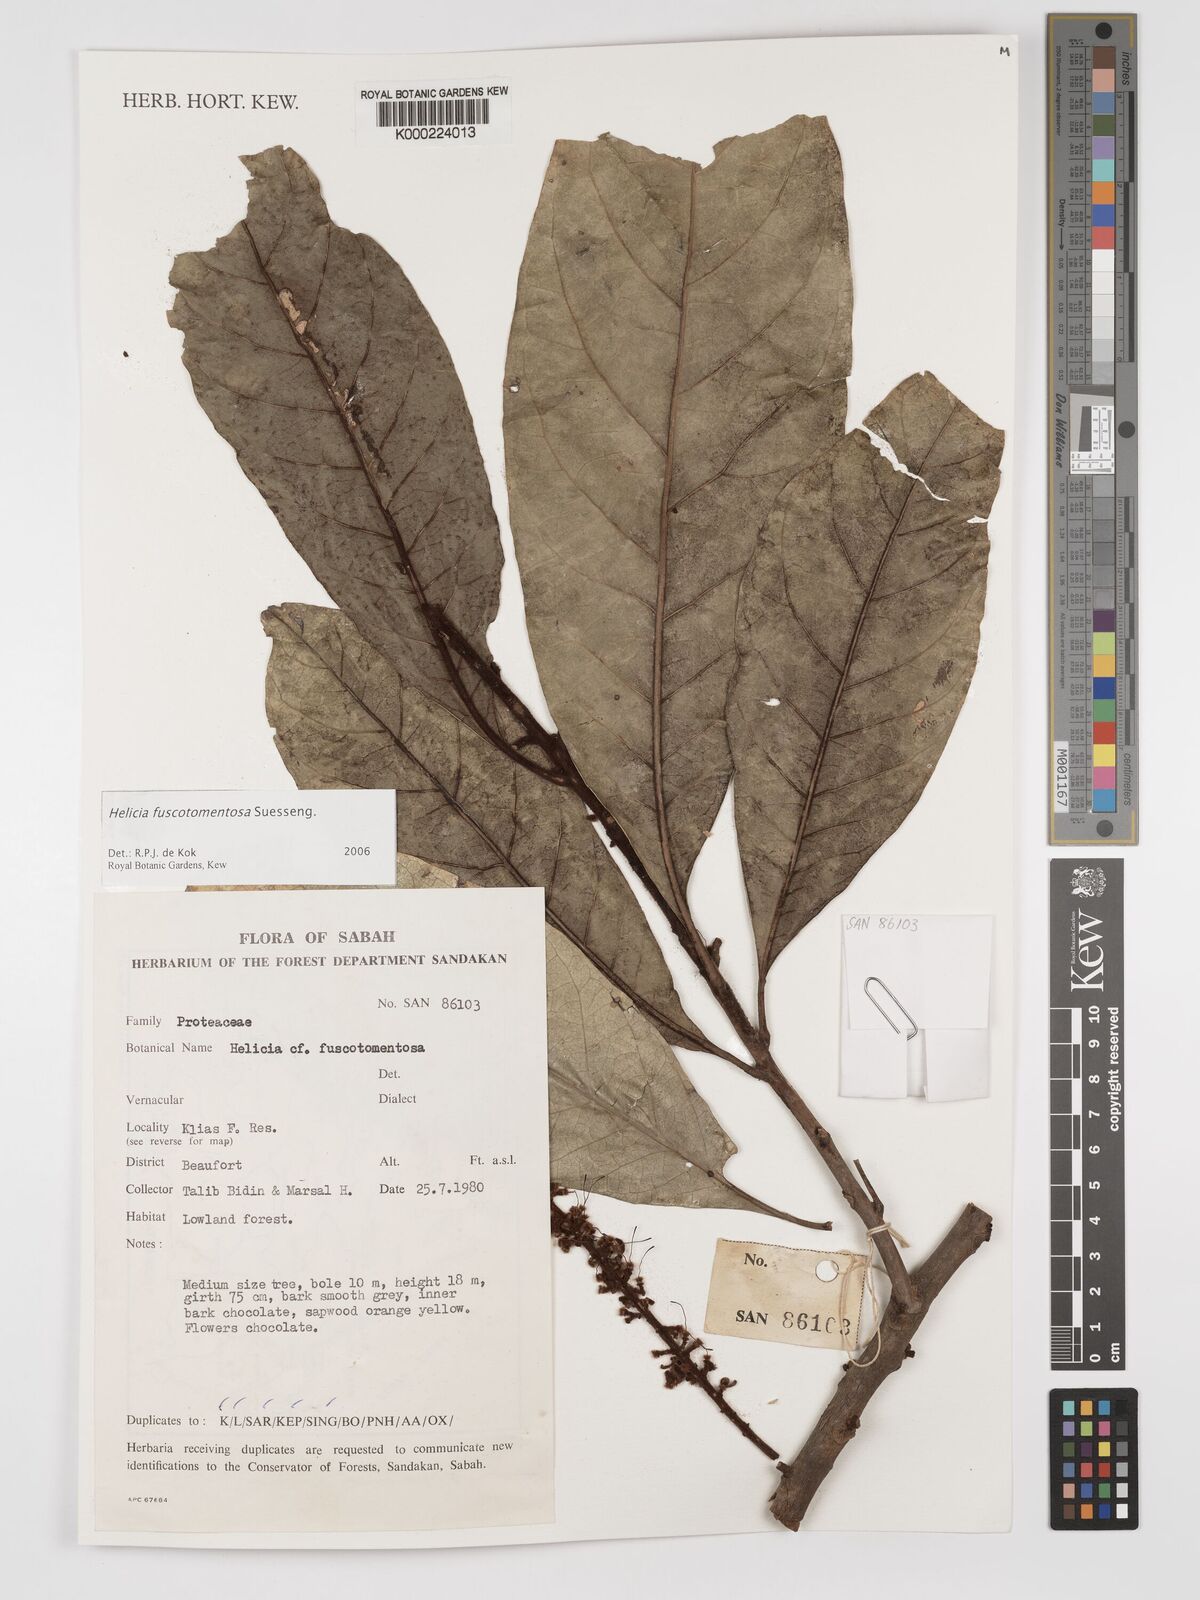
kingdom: Plantae
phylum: Tracheophyta
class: Magnoliopsida
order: Proteales
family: Proteaceae
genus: Helicia
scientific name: Helicia fuscotomentosa
